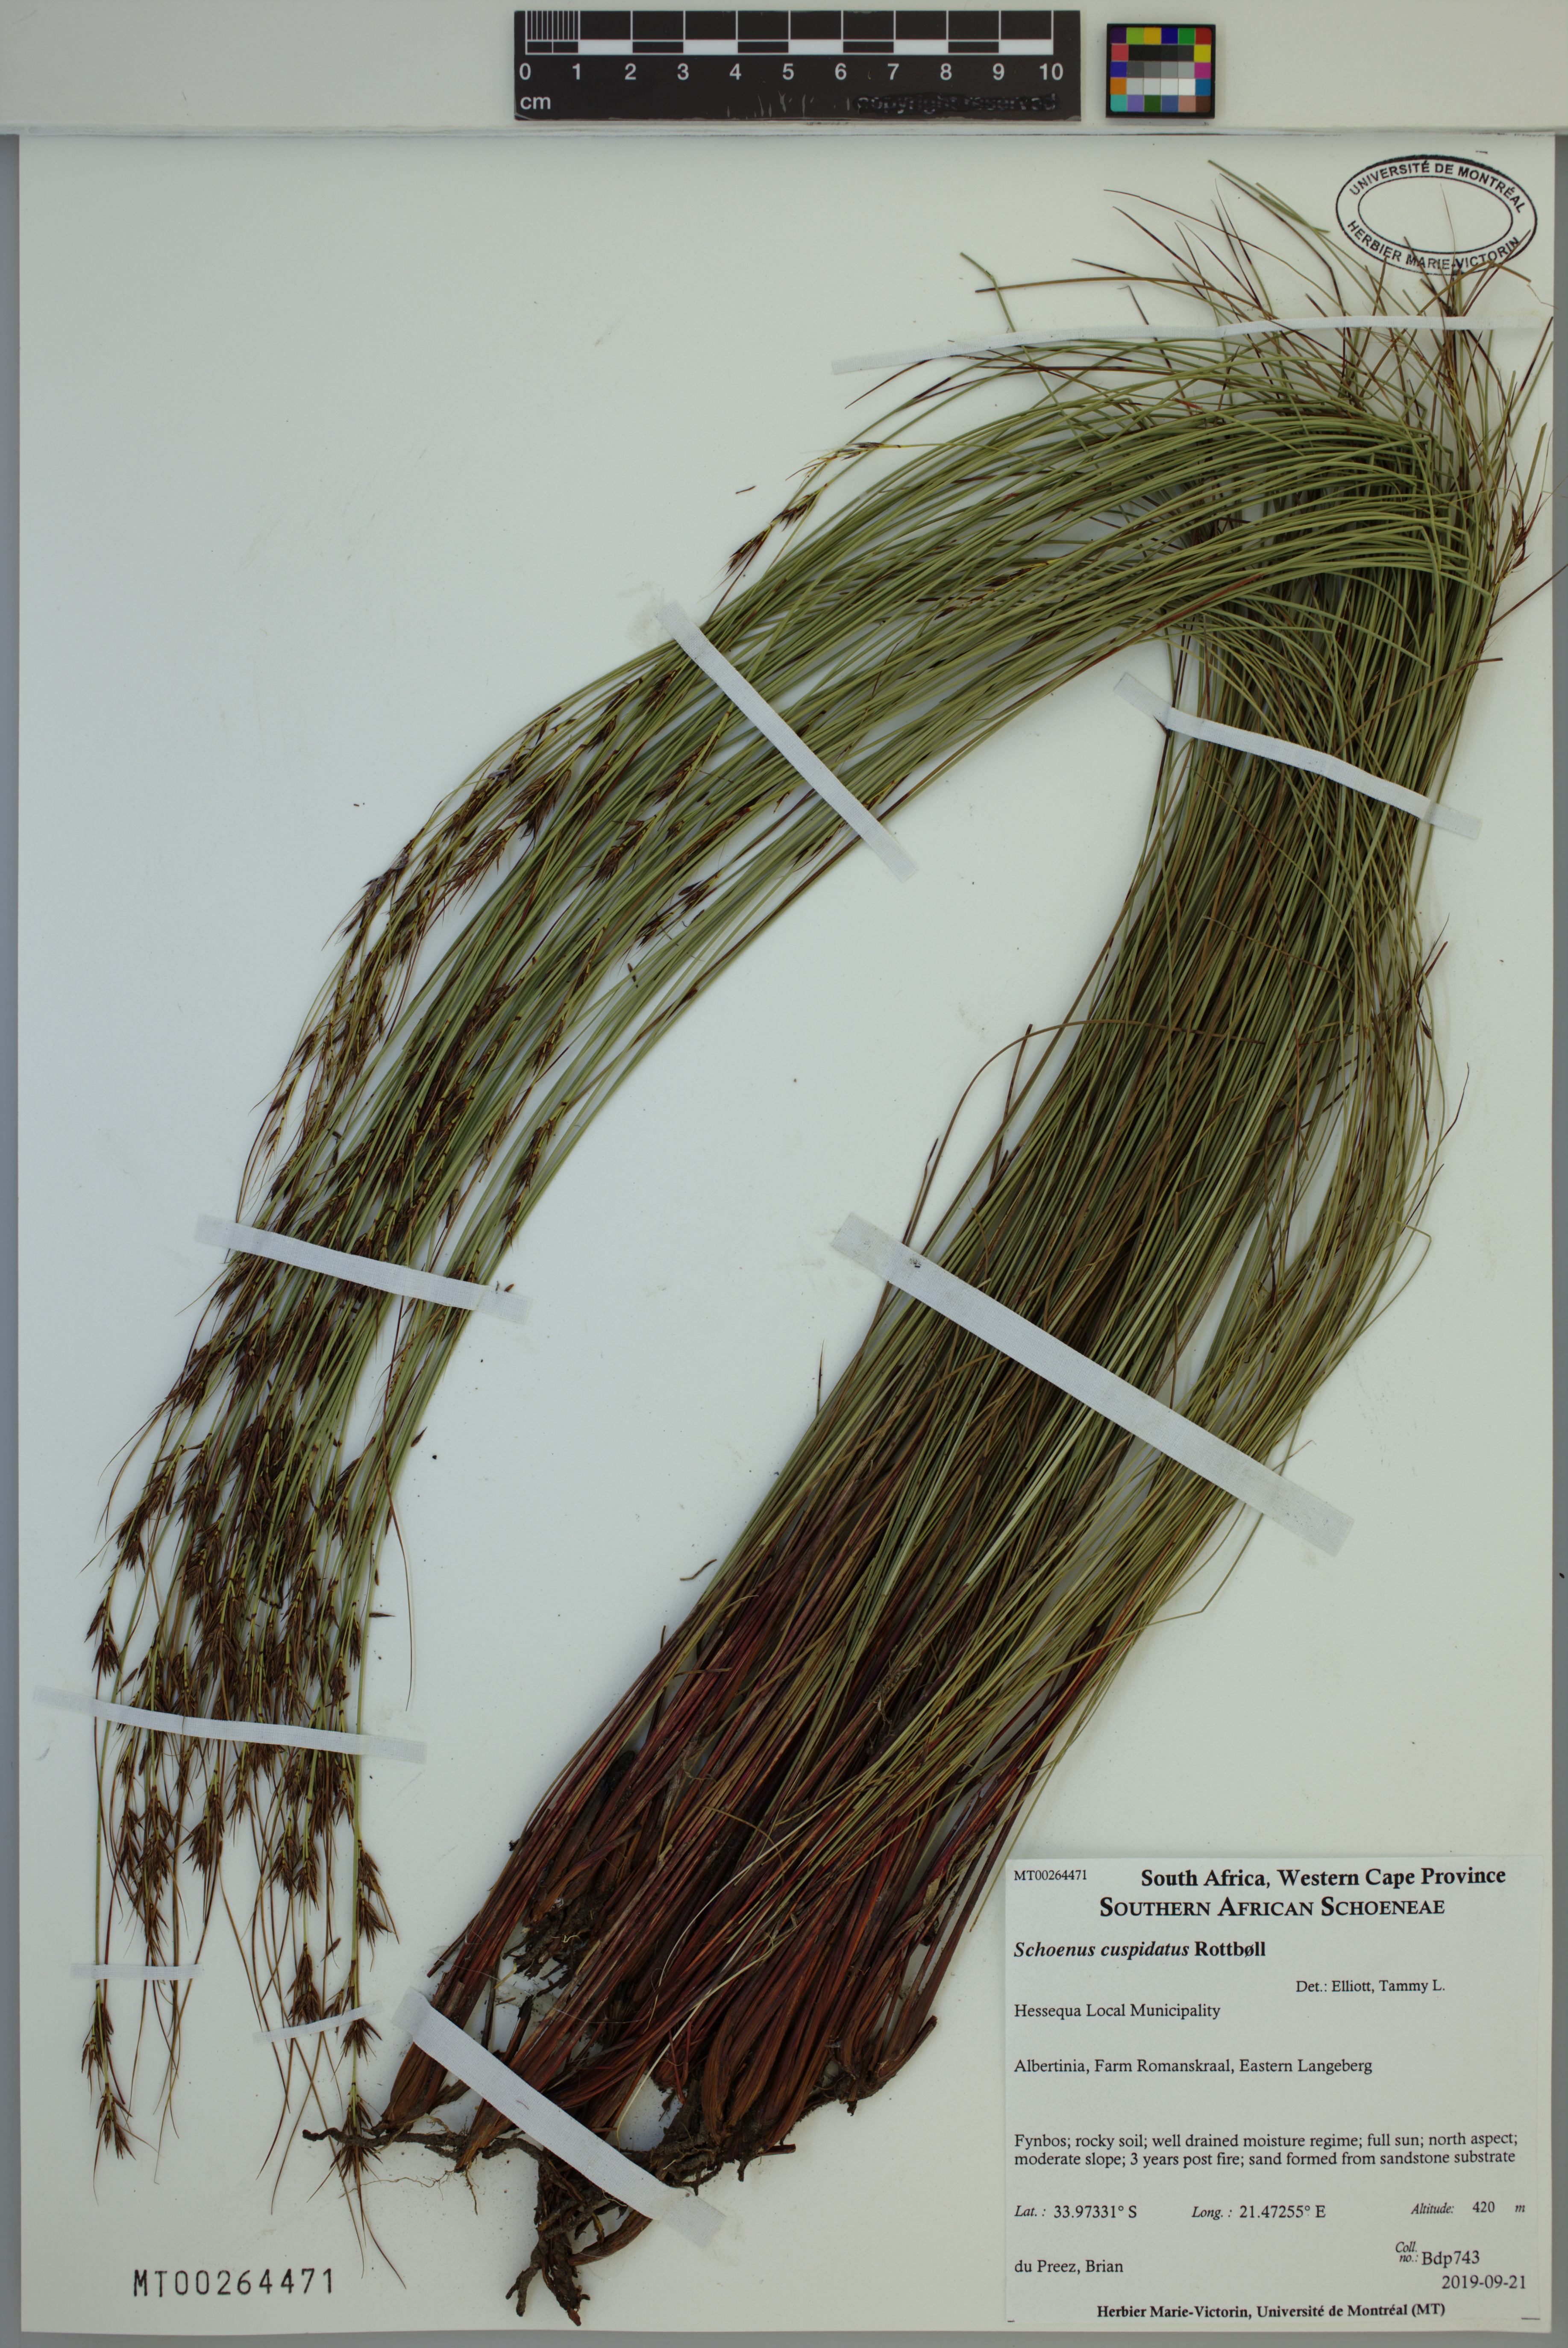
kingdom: Plantae
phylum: Tracheophyta
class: Liliopsida
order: Poales
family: Cyperaceae
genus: Schoenus
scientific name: Schoenus cuspidatus
